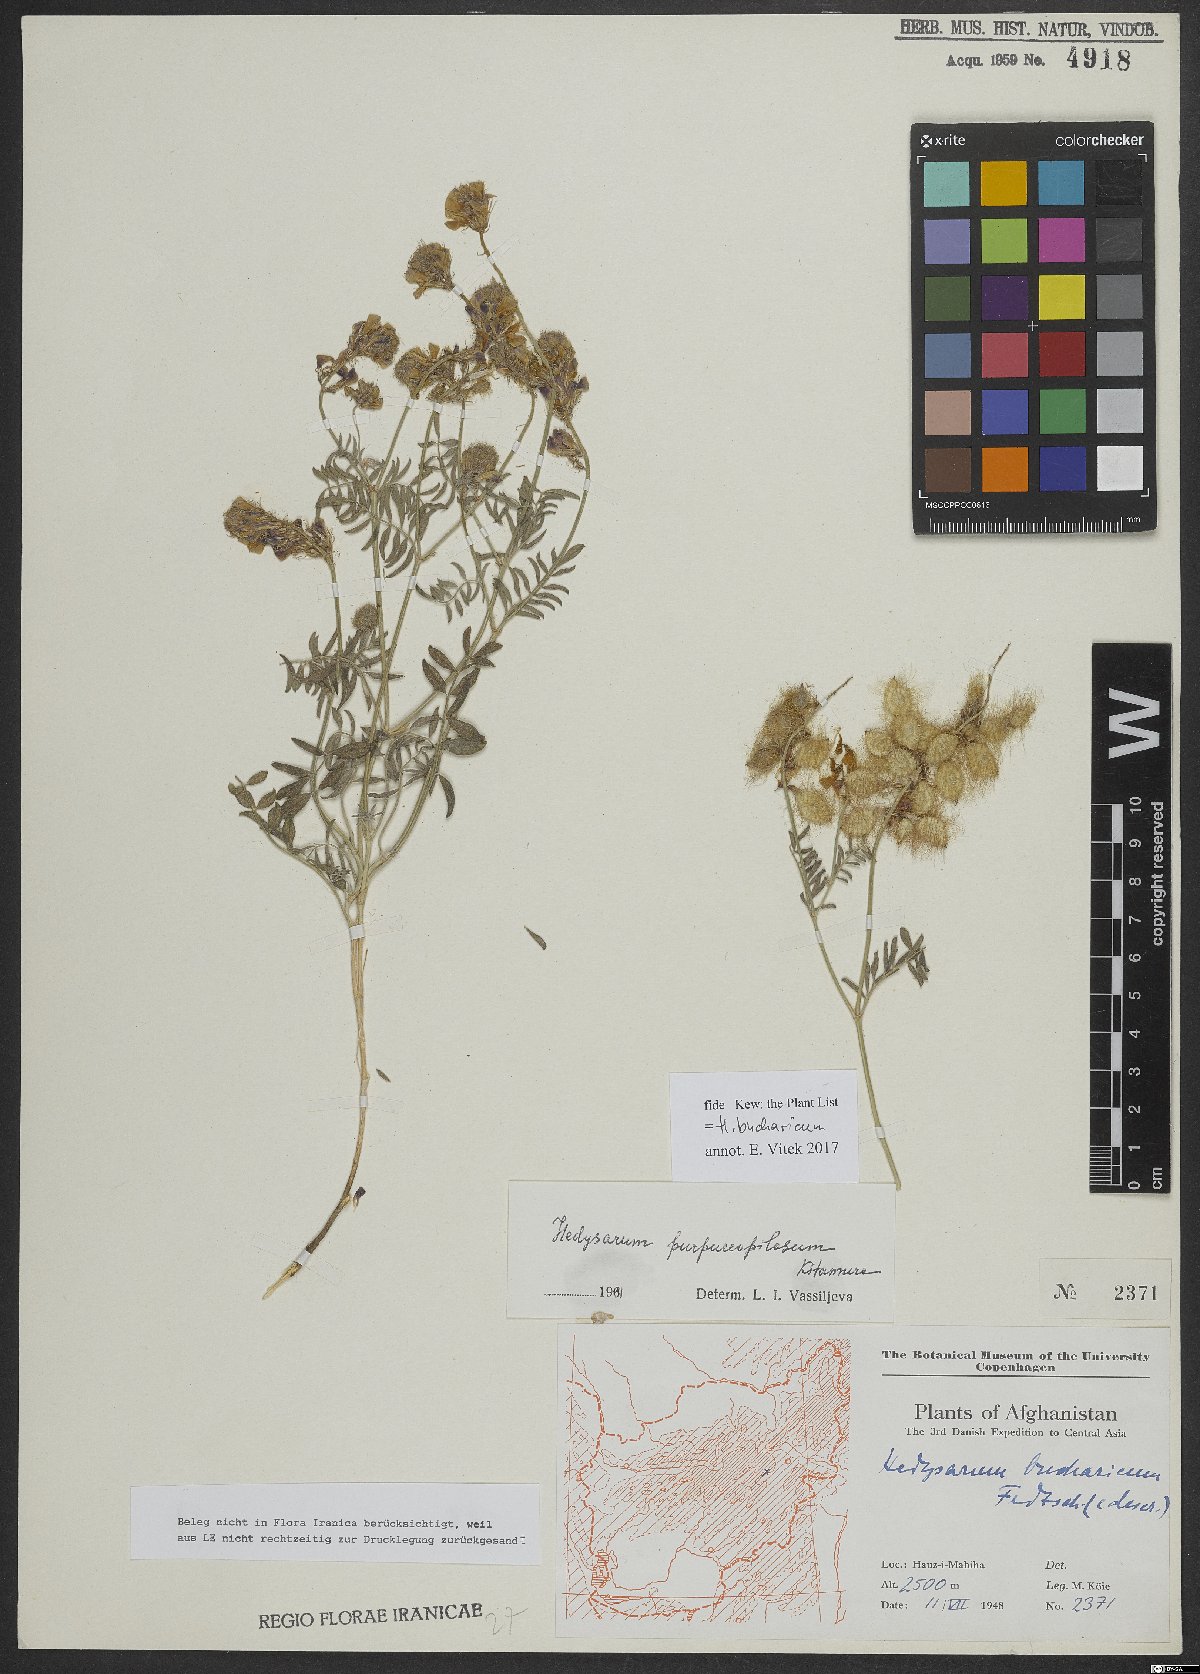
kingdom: Plantae
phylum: Tracheophyta
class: Magnoliopsida
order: Fabales
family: Fabaceae
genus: Hedysarum
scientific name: Hedysarum bucharicum
